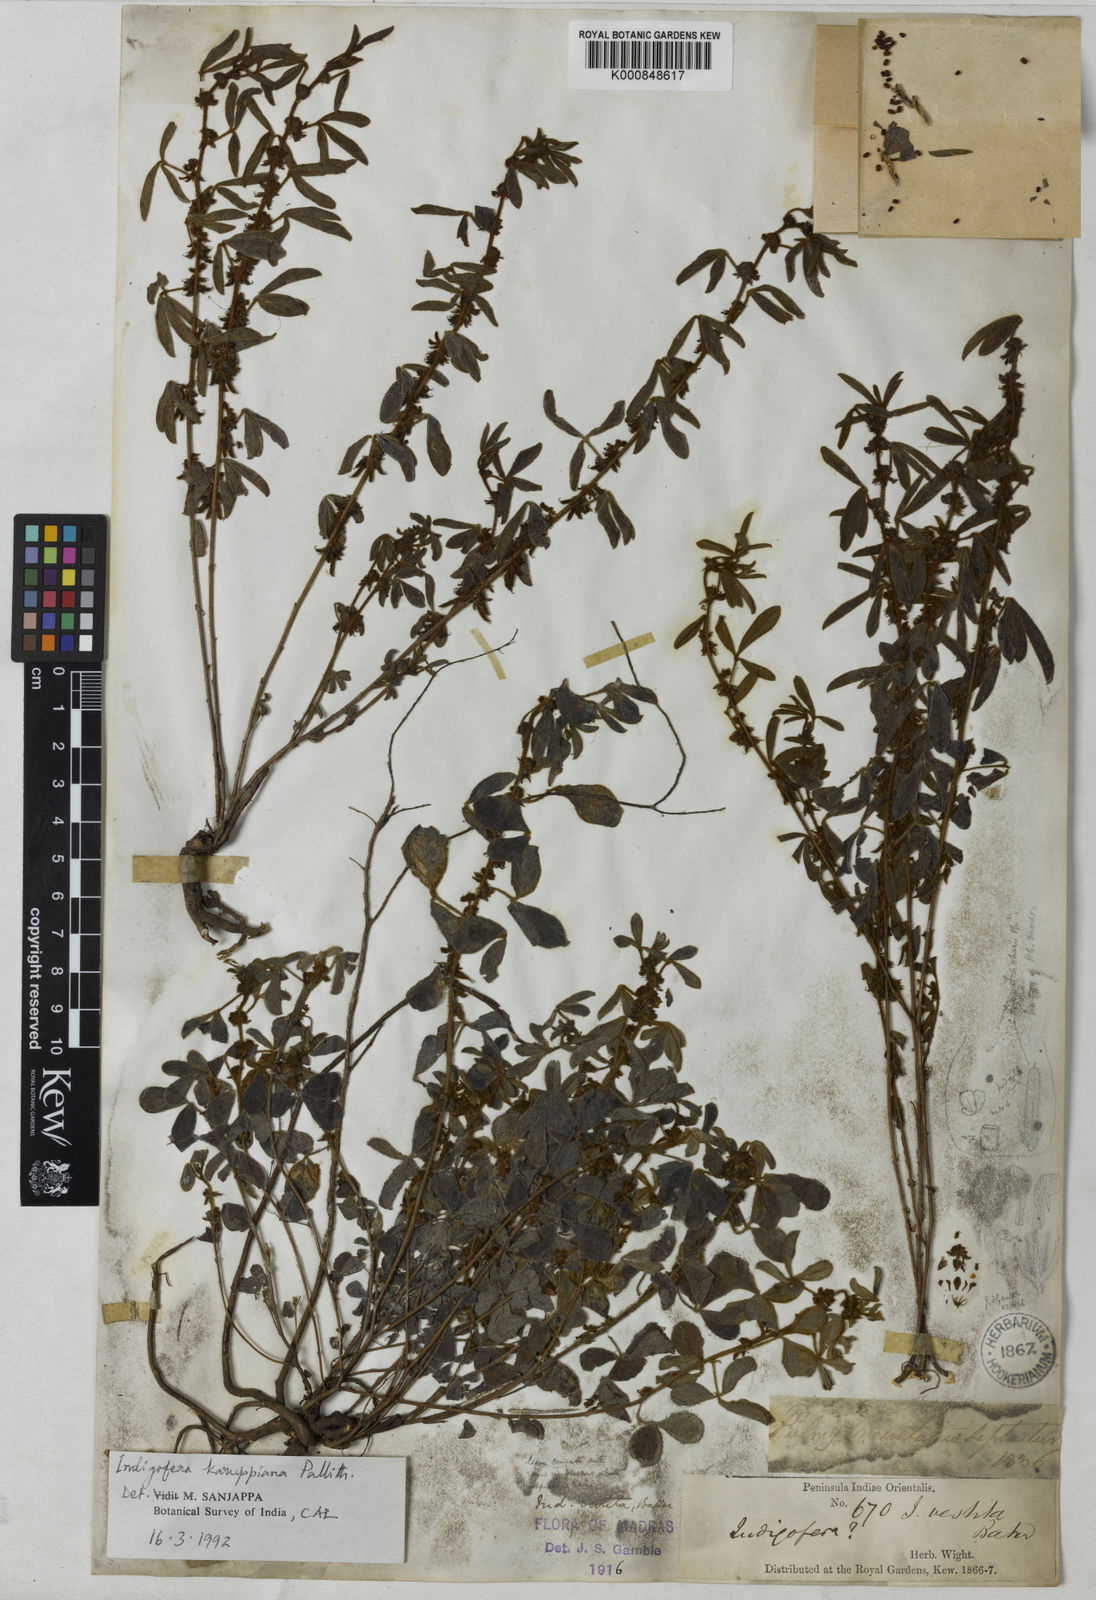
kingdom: Plantae
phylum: Tracheophyta
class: Magnoliopsida
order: Fabales
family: Fabaceae
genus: Indigofera
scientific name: Indigofera ultima
